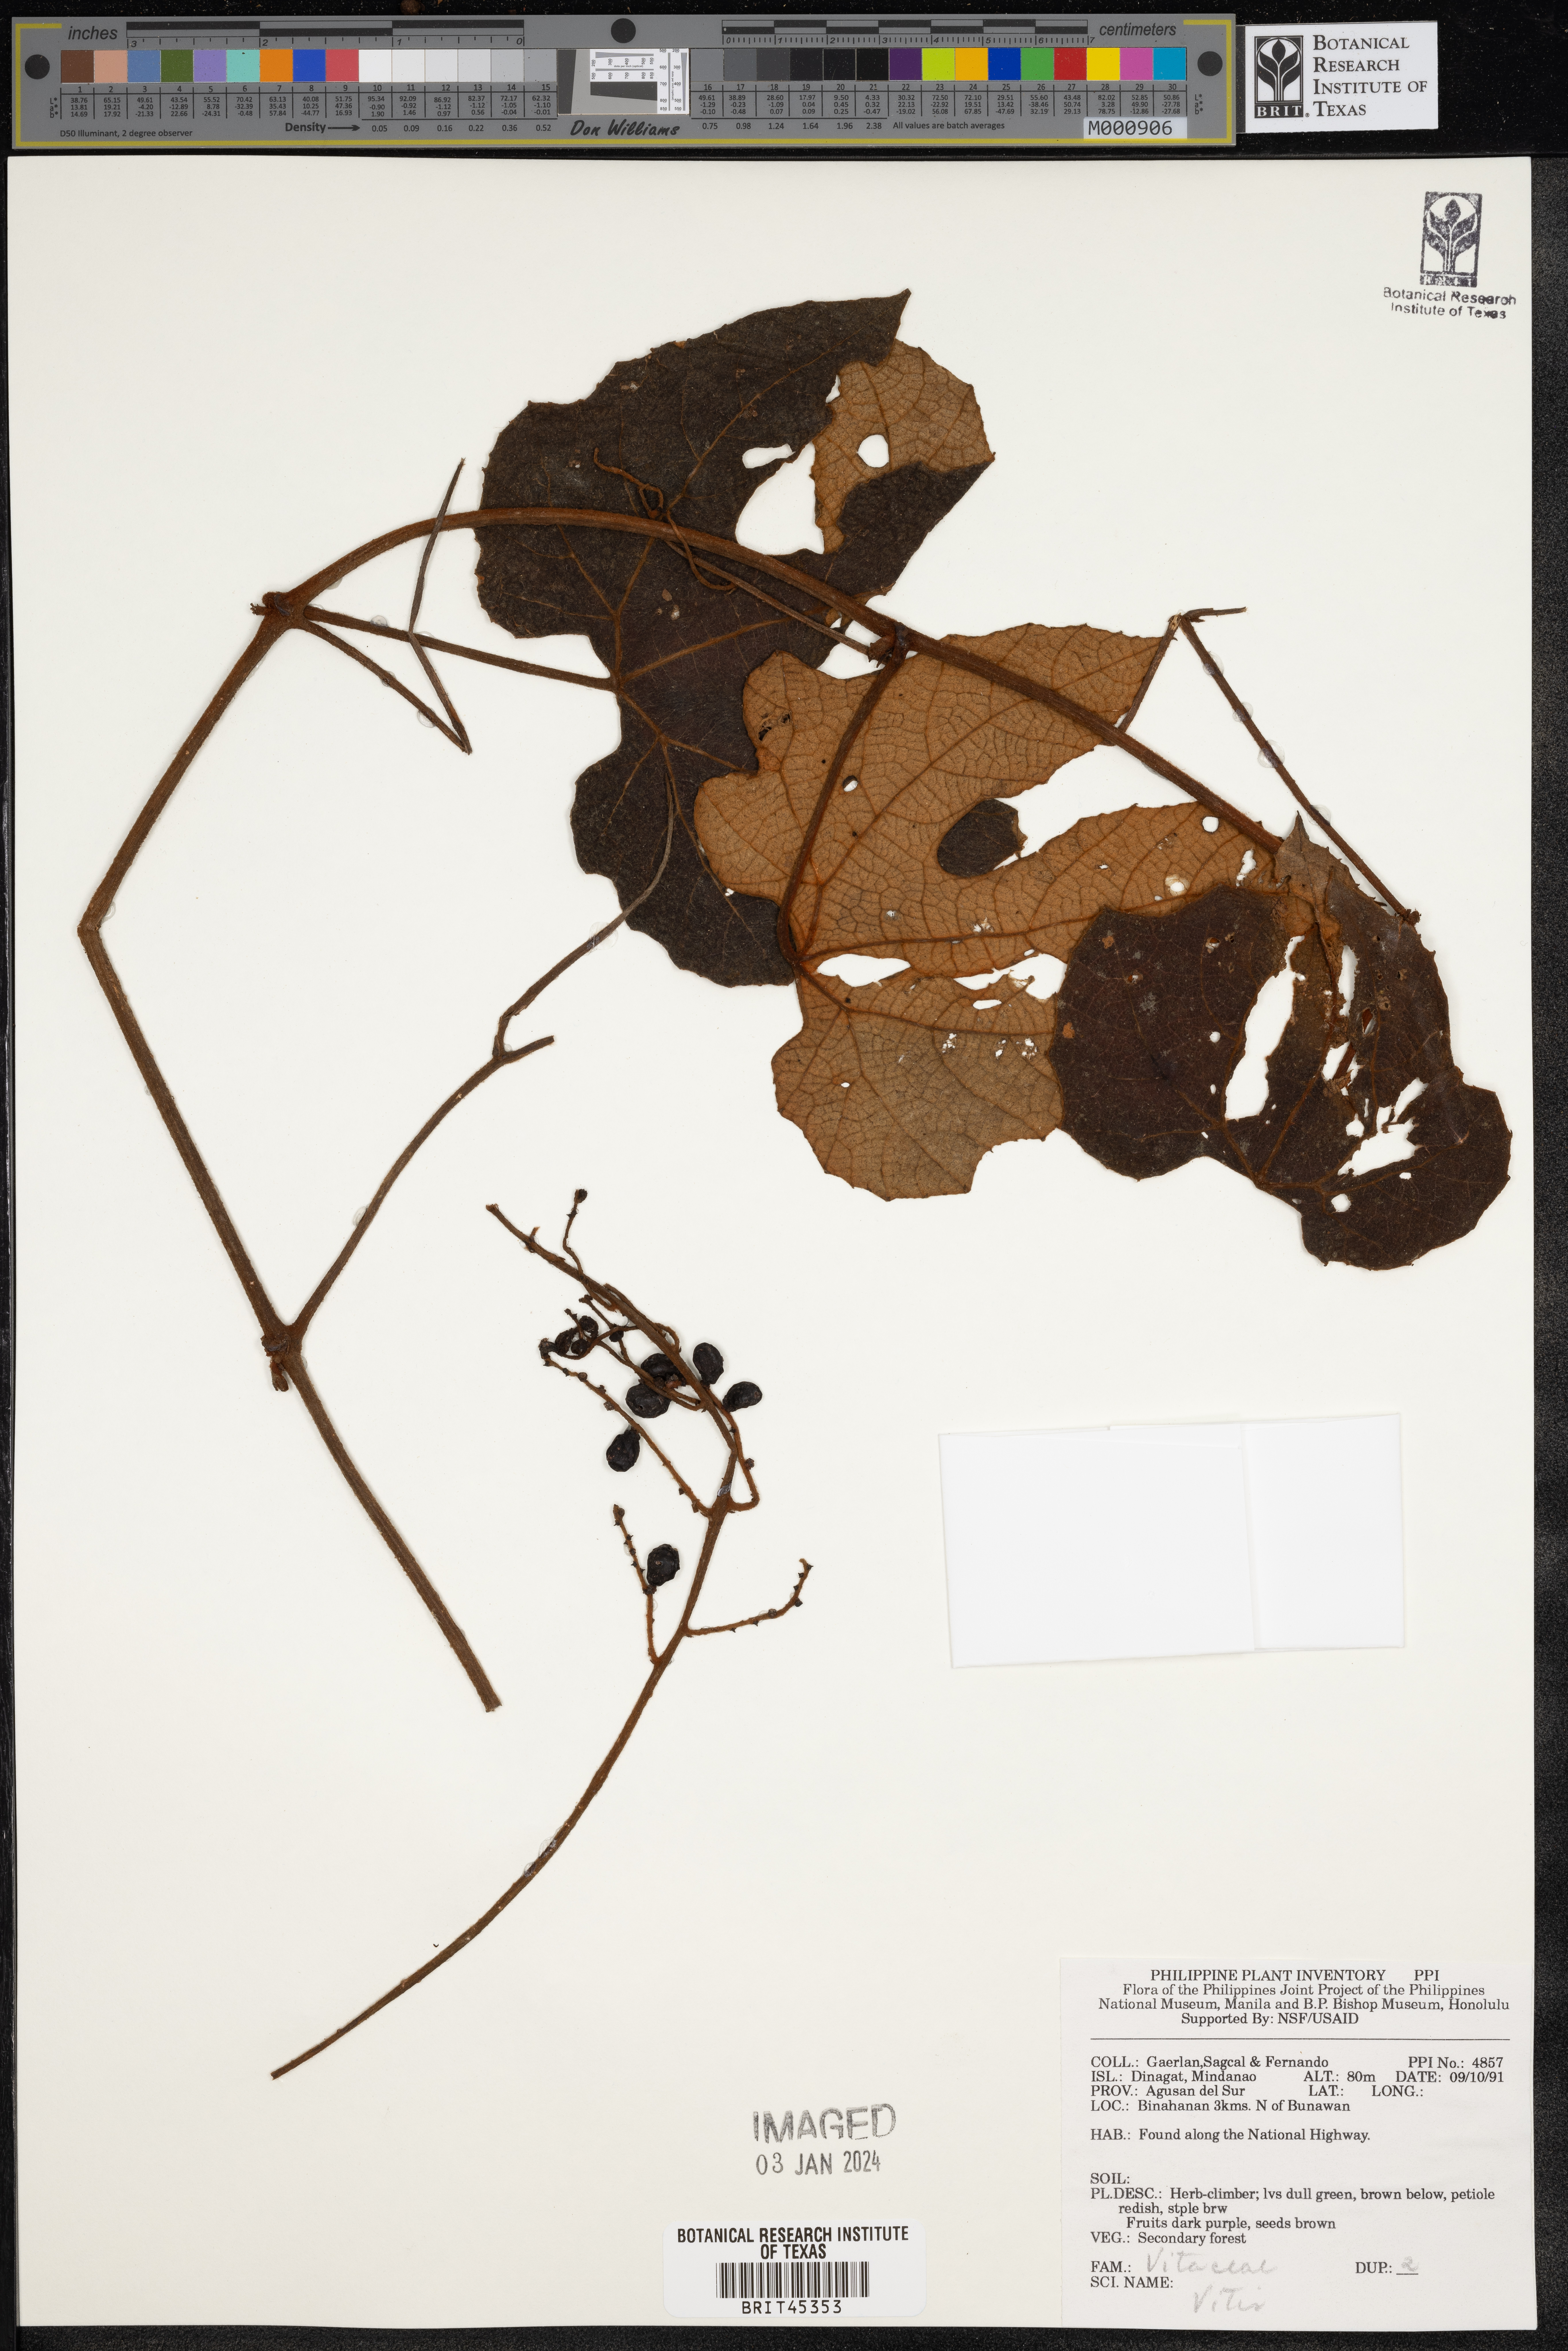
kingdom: Plantae
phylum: Tracheophyta
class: Magnoliopsida
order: Vitales
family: Vitaceae
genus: Vitis
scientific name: Vitis
